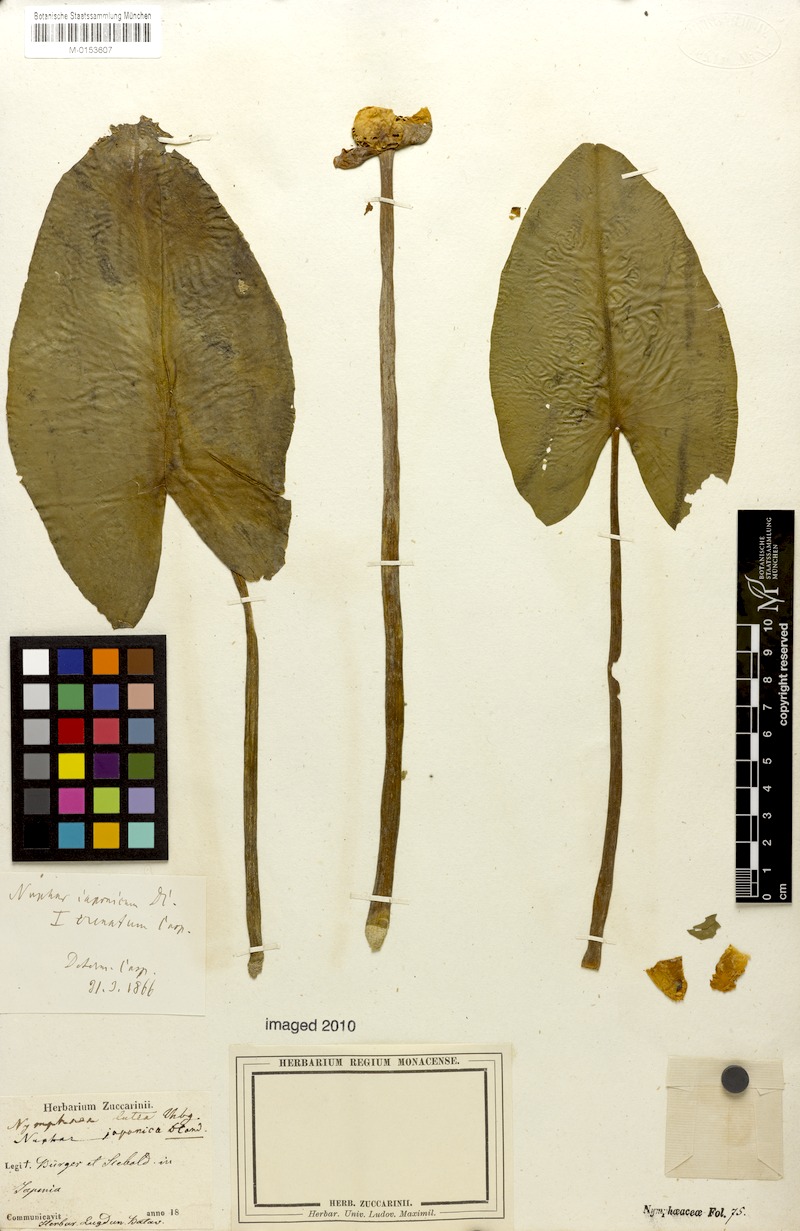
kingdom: Plantae
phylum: Tracheophyta
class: Magnoliopsida
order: Nymphaeales
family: Nymphaeaceae
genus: Nuphar
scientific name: Nuphar japonica
